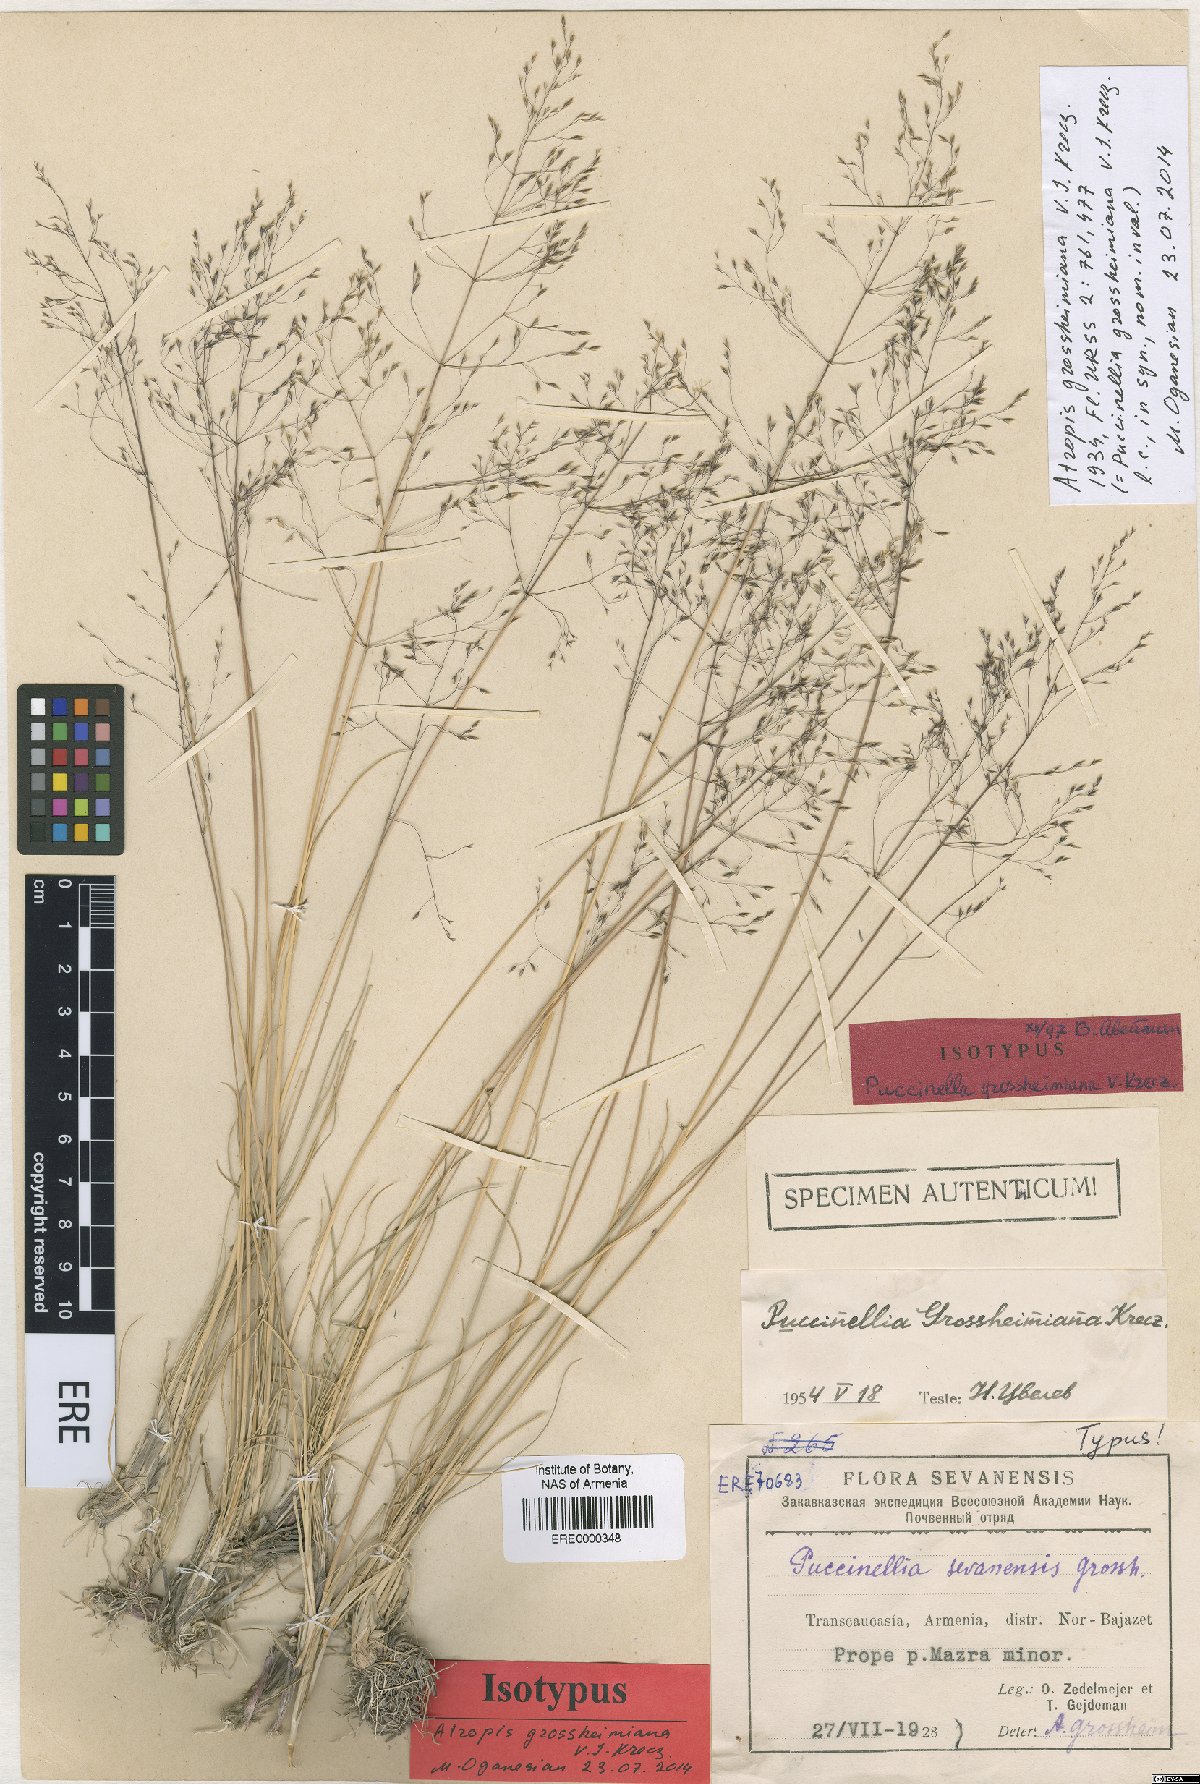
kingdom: Plantae
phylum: Tracheophyta
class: Liliopsida
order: Poales
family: Poaceae
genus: Puccinellia
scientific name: Puccinellia grossheimiana
